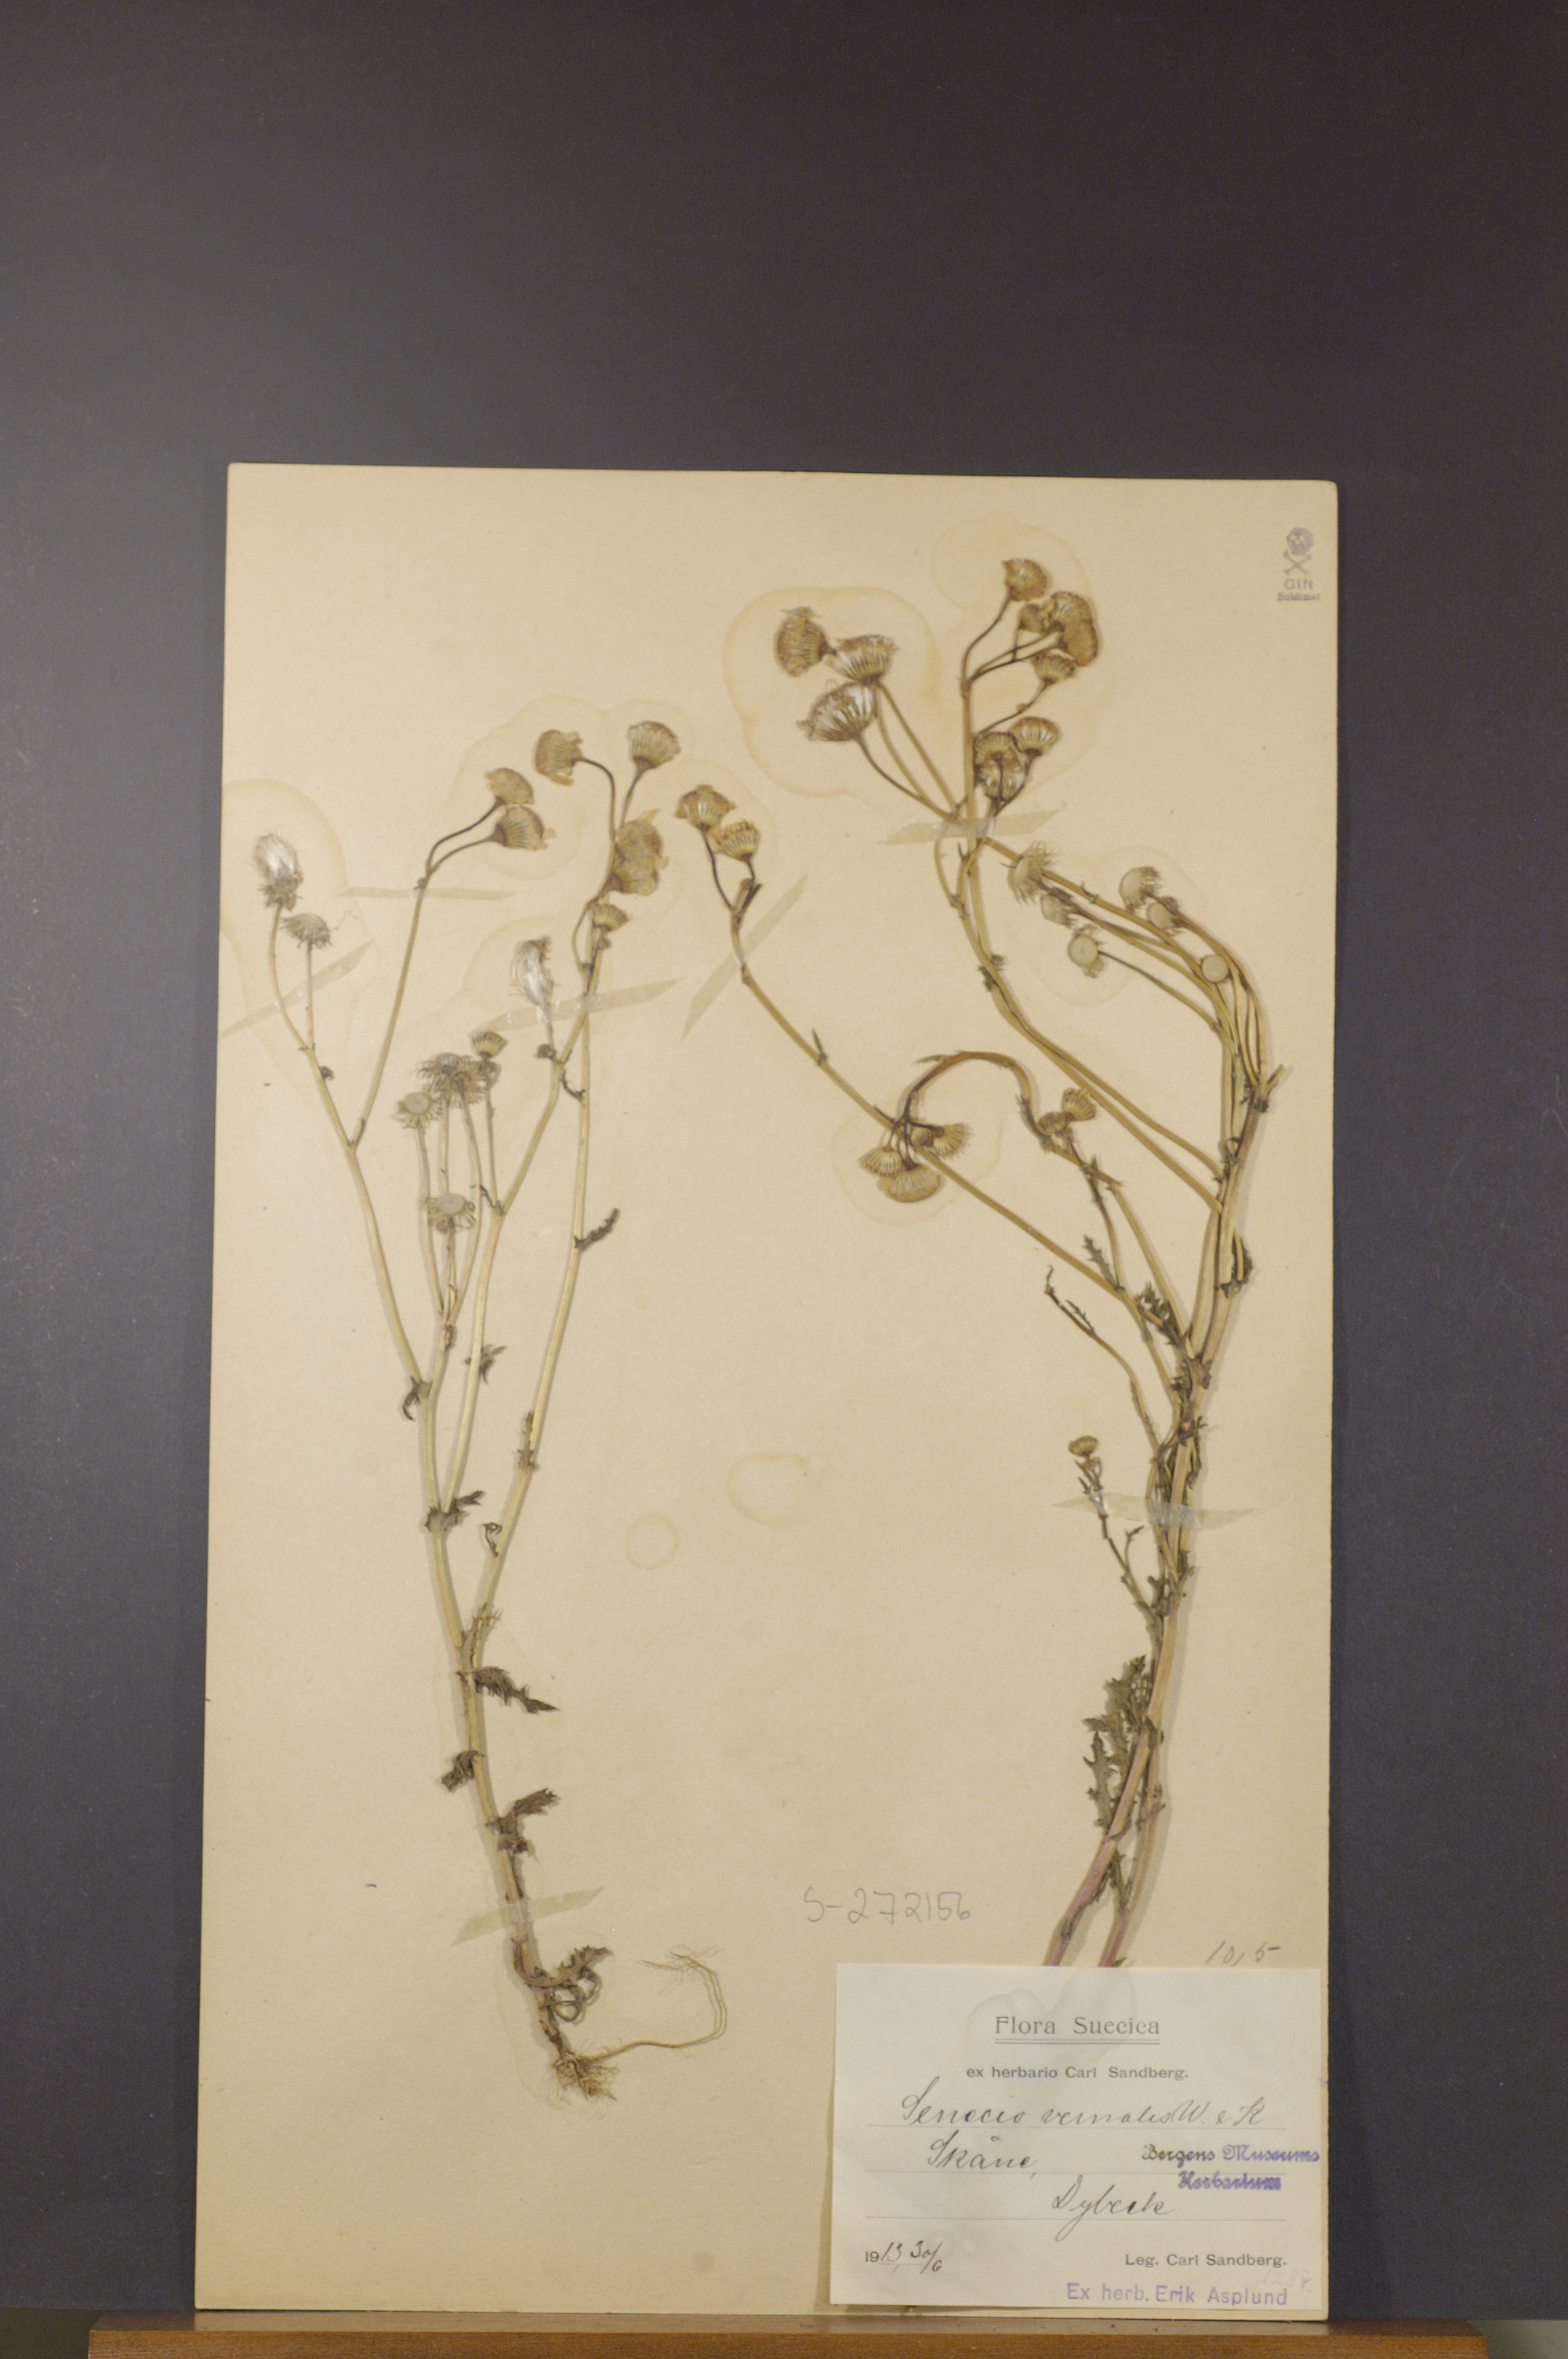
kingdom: Plantae
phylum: Tracheophyta
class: Magnoliopsida
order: Asterales
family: Asteraceae
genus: Senecio
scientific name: Senecio vernalis
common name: Eastern groundsel
